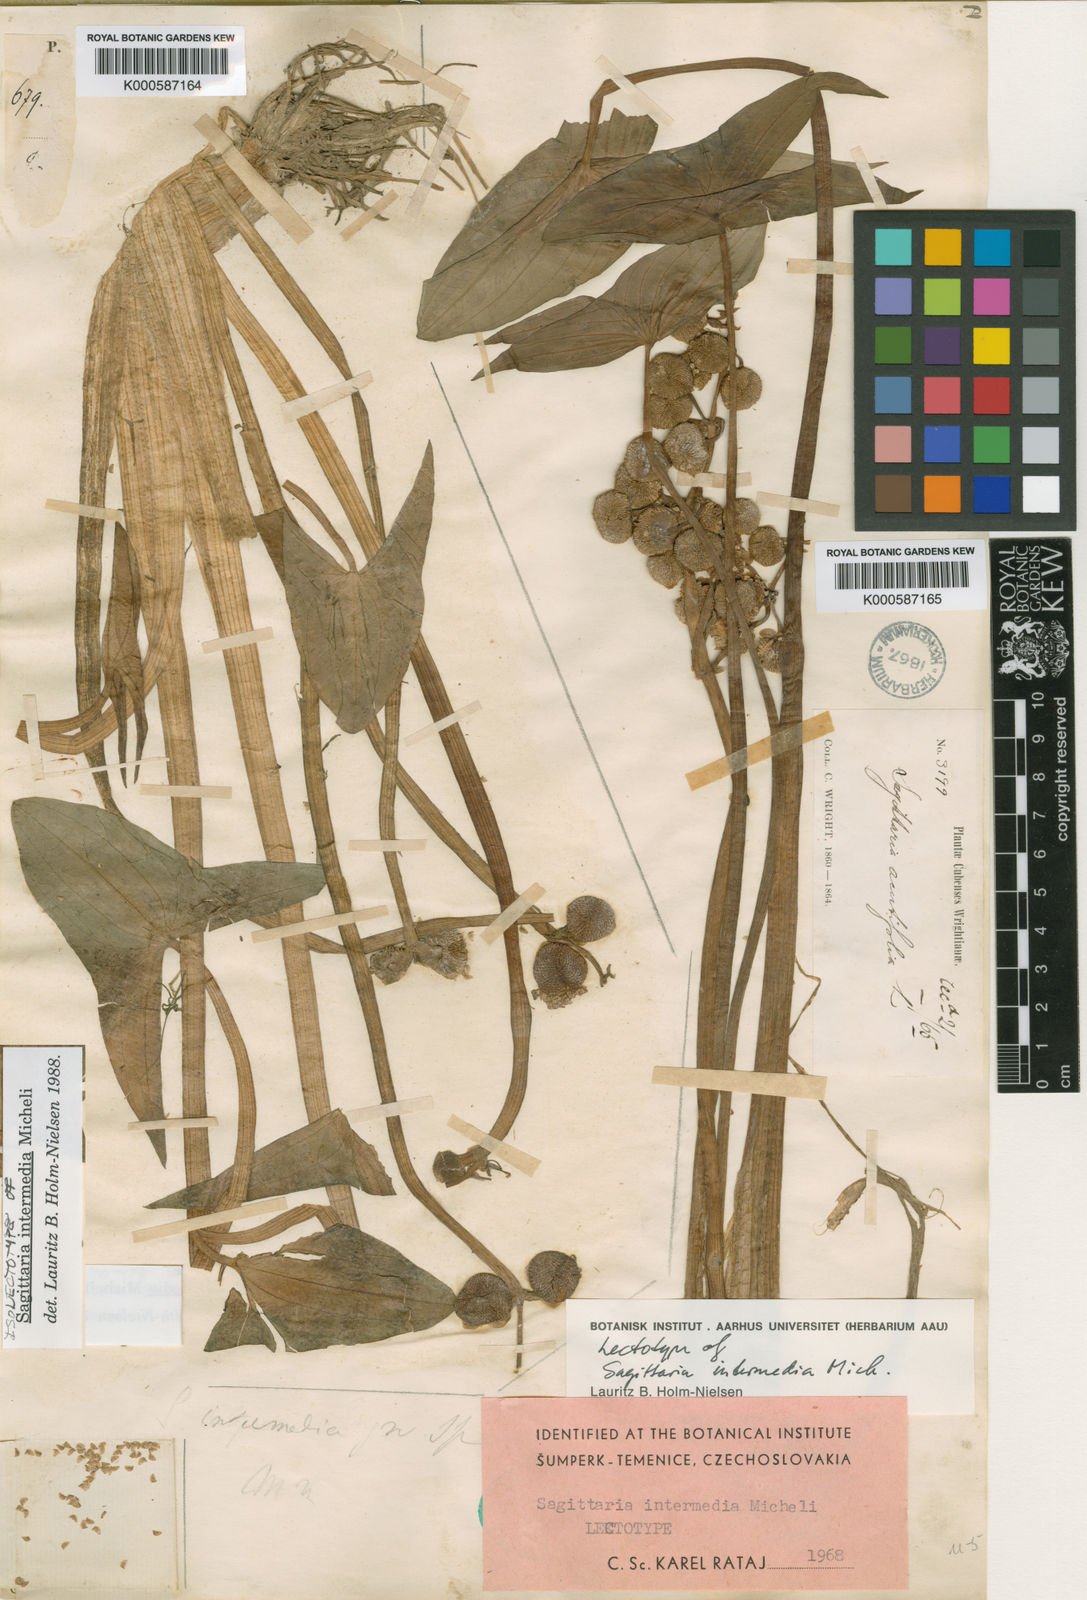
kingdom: Plantae
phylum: Tracheophyta
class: Liliopsida
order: Alismatales
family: Alismataceae
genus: Sagittaria
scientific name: Sagittaria intermedia
